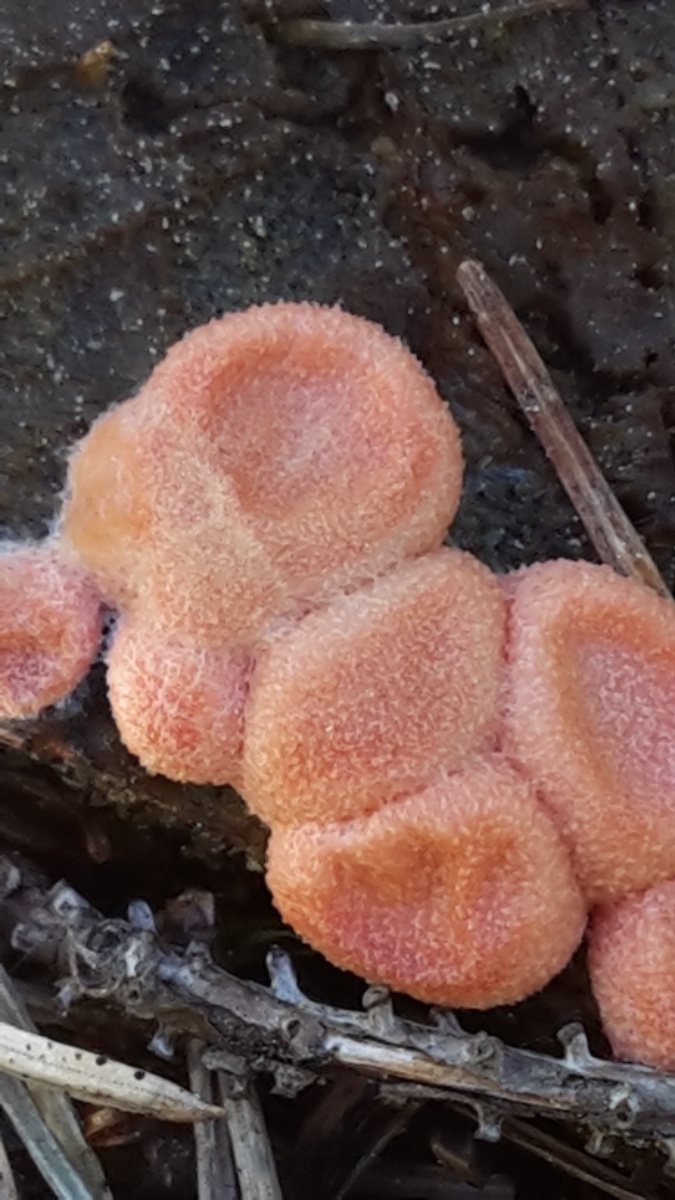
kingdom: Protozoa
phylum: Mycetozoa
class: Myxomycetes
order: Cribrariales
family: Tubiferaceae
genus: Lycogala
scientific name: Lycogala epidendrum
